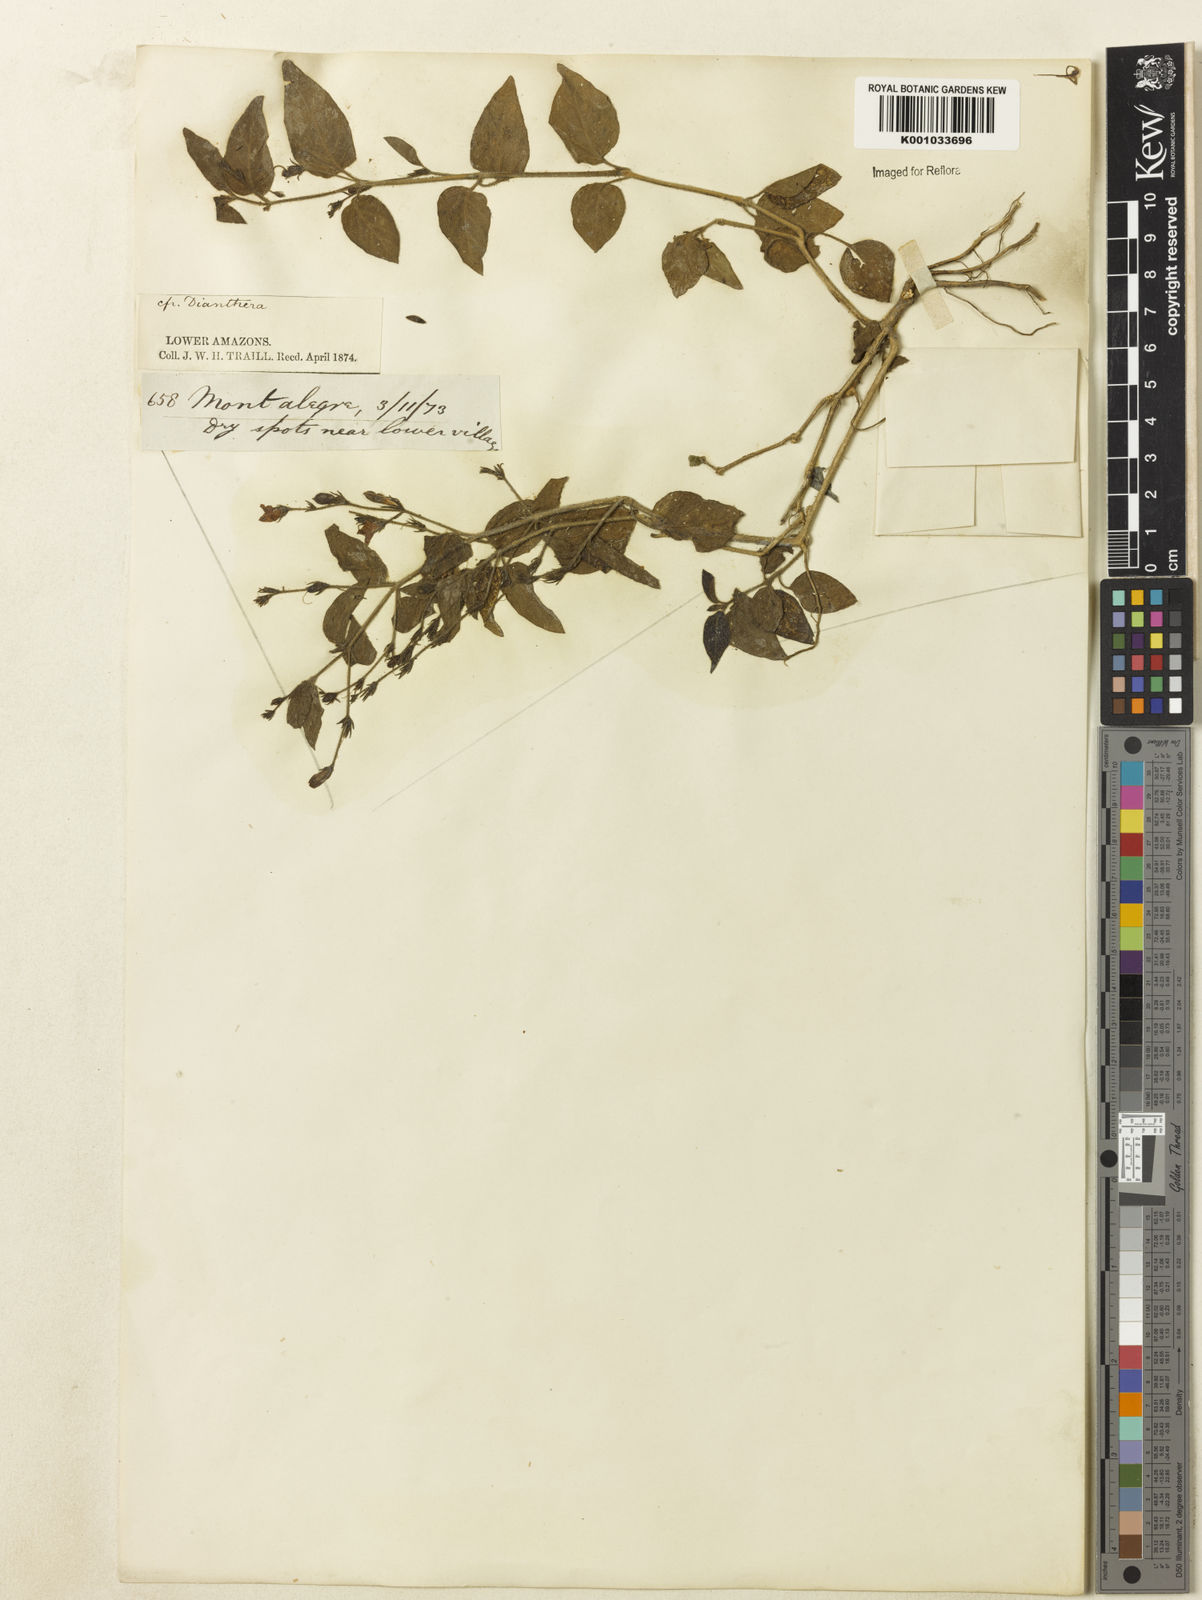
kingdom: Plantae
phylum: Tracheophyta
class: Magnoliopsida
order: Lamiales
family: Acanthaceae
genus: Justicia
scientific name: Justicia
